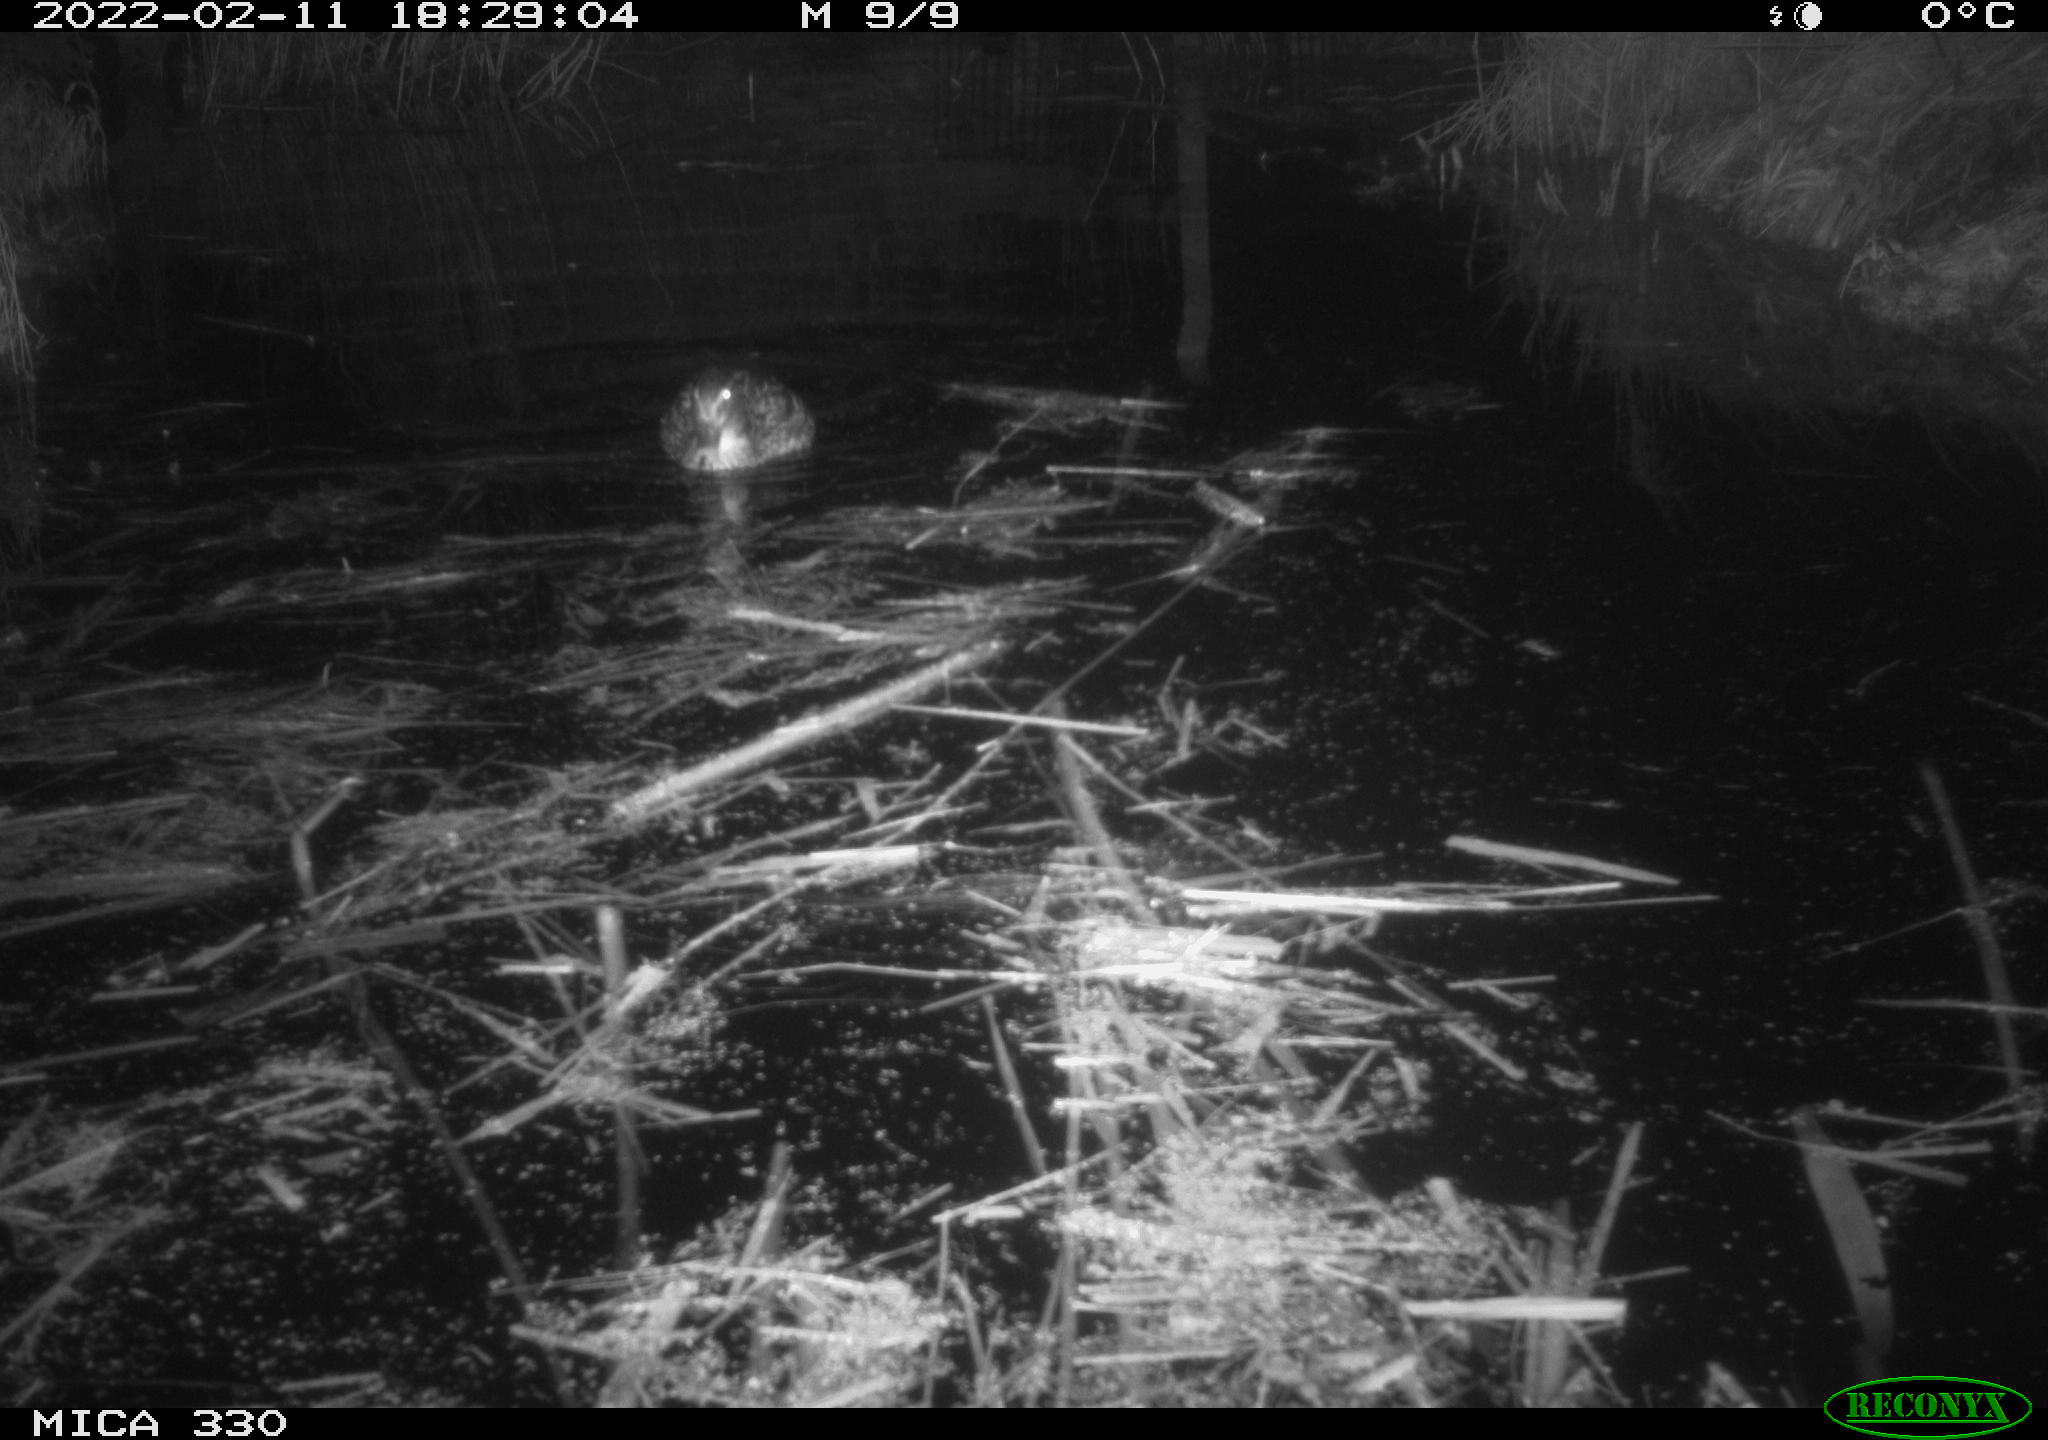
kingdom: Animalia
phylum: Chordata
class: Aves
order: Anseriformes
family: Anatidae
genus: Anas
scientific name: Anas platyrhynchos
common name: Mallard
